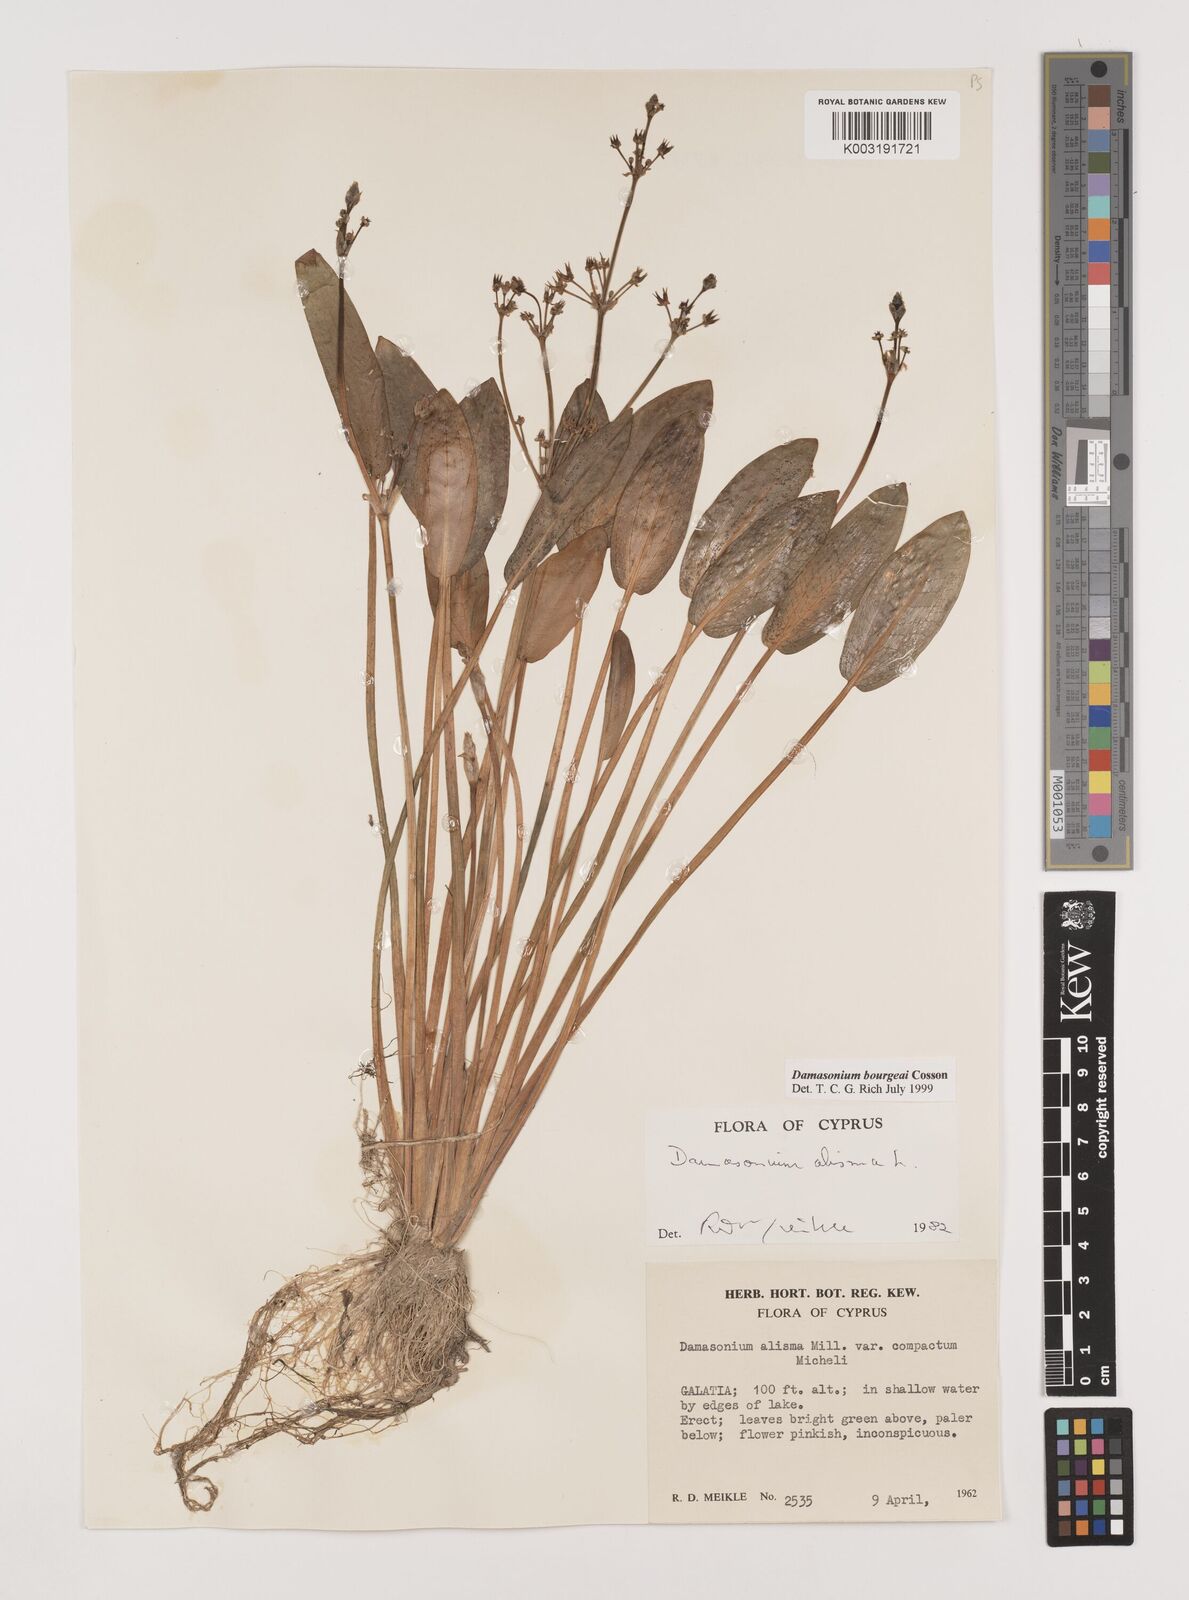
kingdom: Plantae
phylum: Tracheophyta
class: Liliopsida
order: Alismatales
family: Alismataceae
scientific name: Alismataceae
